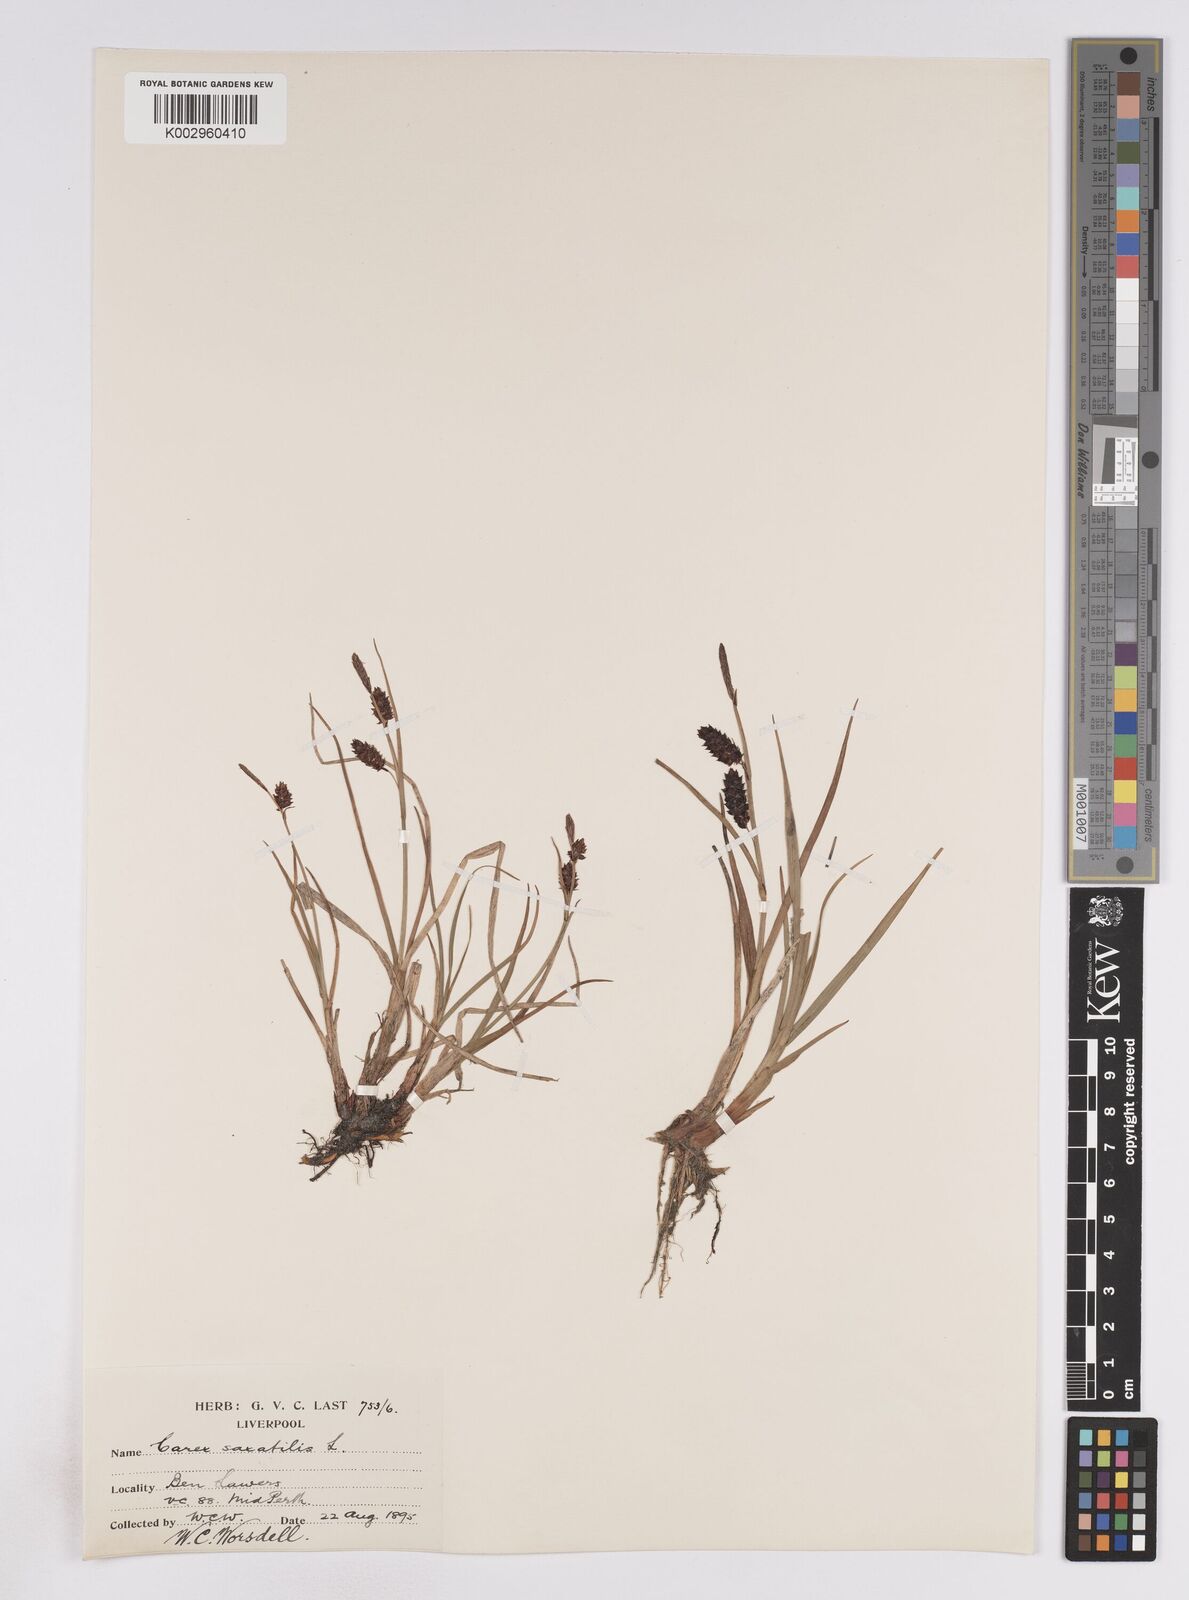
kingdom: Plantae
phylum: Tracheophyta
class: Liliopsida
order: Poales
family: Cyperaceae
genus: Carex
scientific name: Carex saxatilis
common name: Russet sedge
